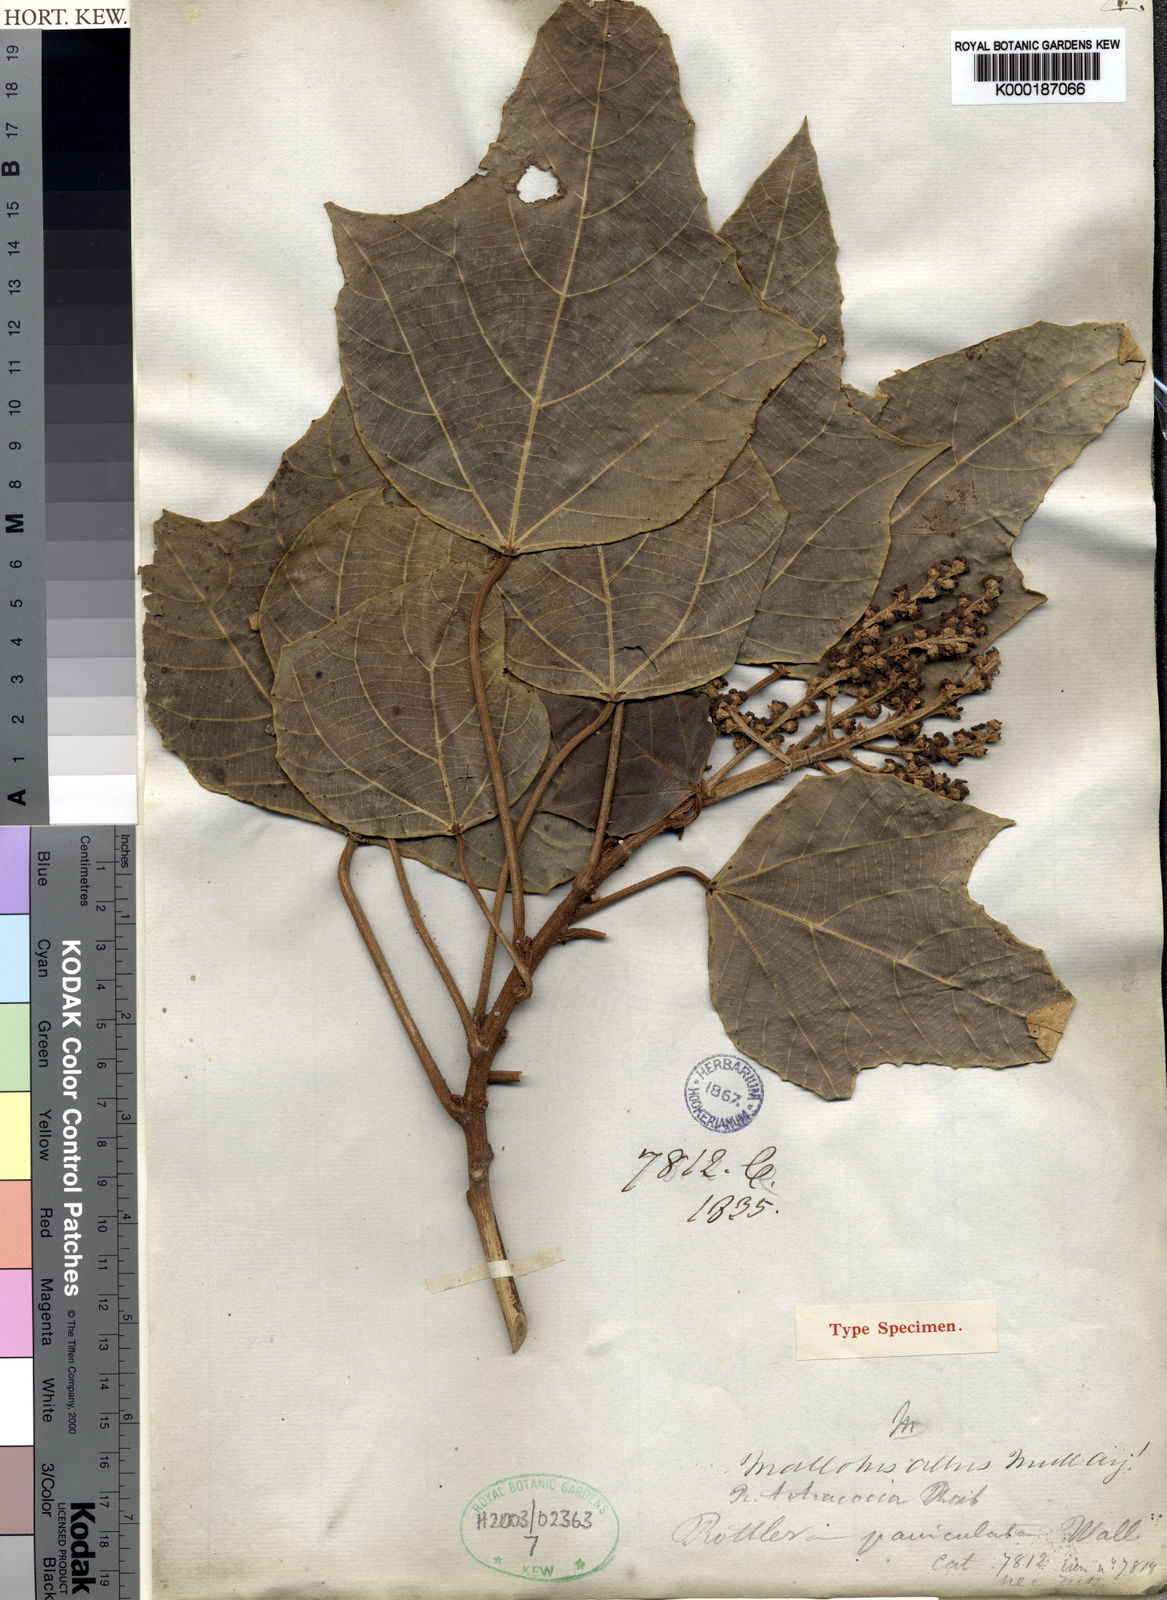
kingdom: Plantae
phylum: Tracheophyta
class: Magnoliopsida
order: Malpighiales
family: Euphorbiaceae
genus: Mallotus
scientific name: Mallotus tetracoccus
